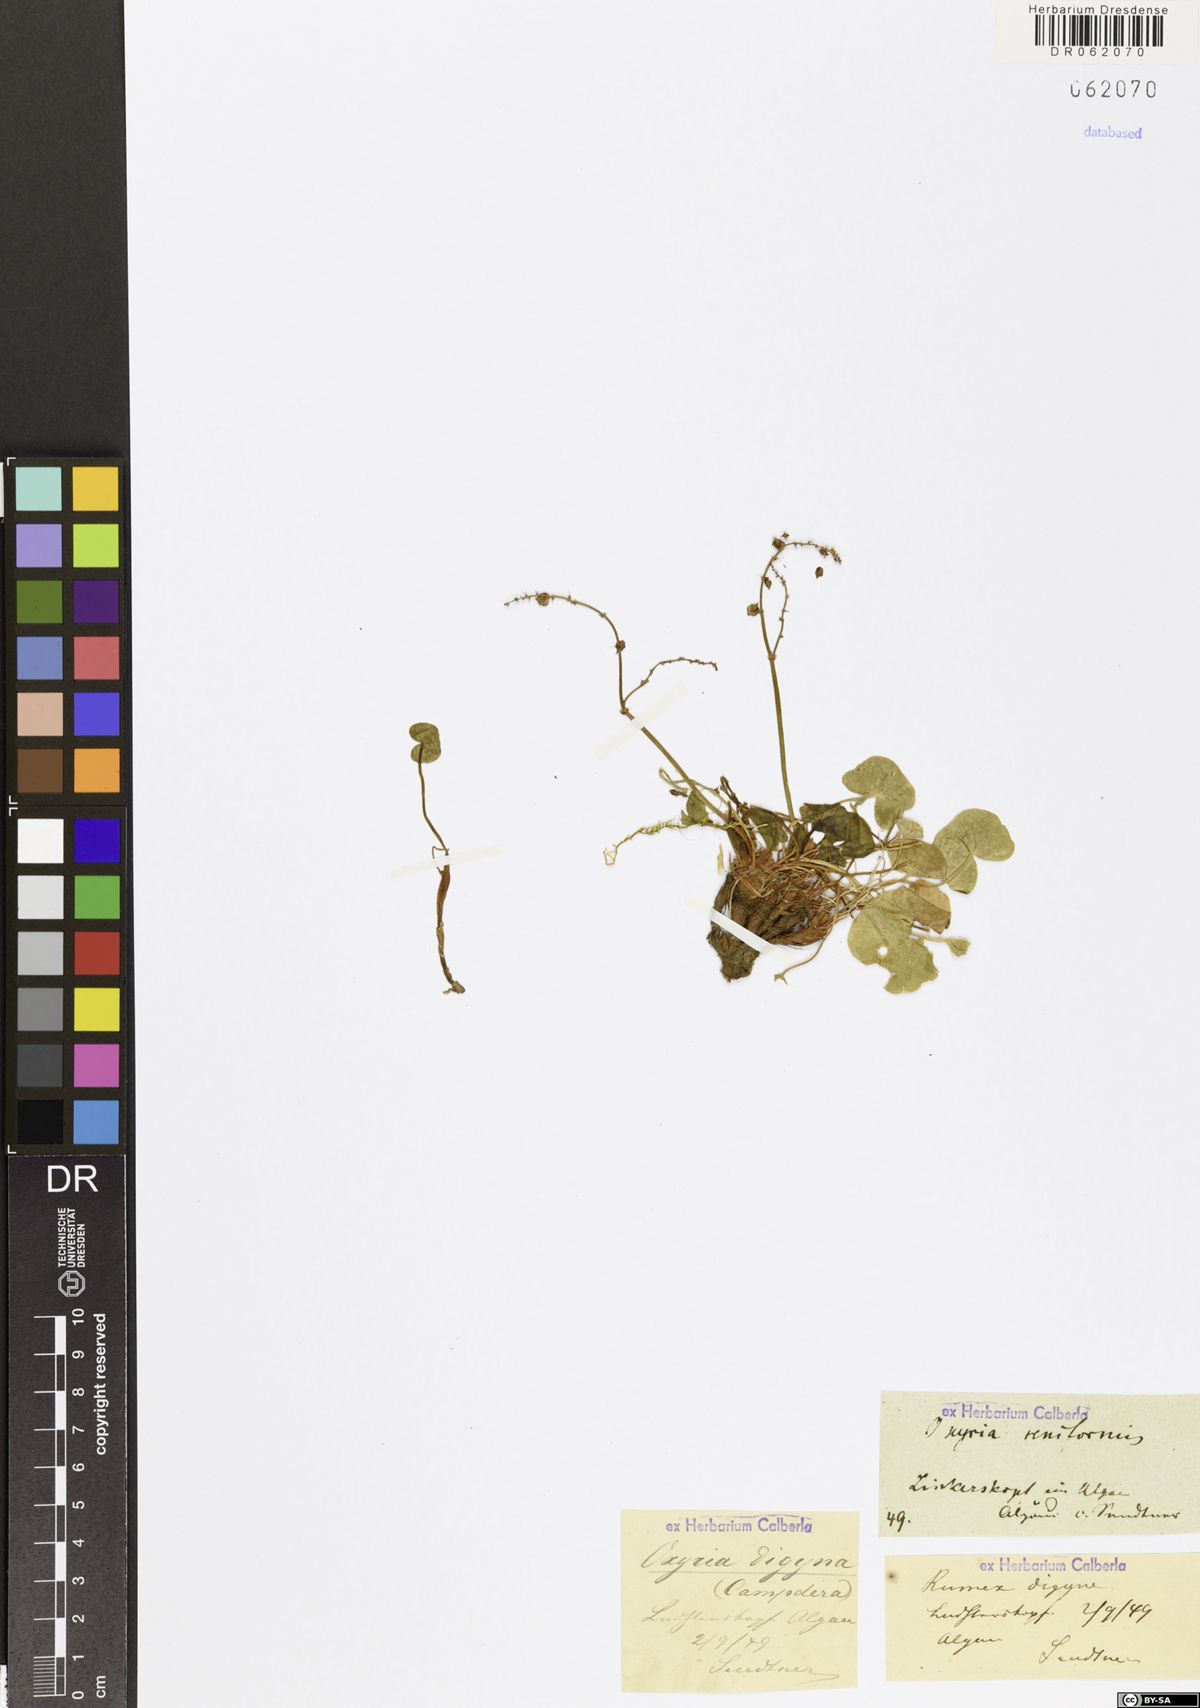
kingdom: Plantae
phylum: Tracheophyta
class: Magnoliopsida
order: Caryophyllales
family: Polygonaceae
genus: Oxyria
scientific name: Oxyria digyna
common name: Alpine mountain-sorrel
